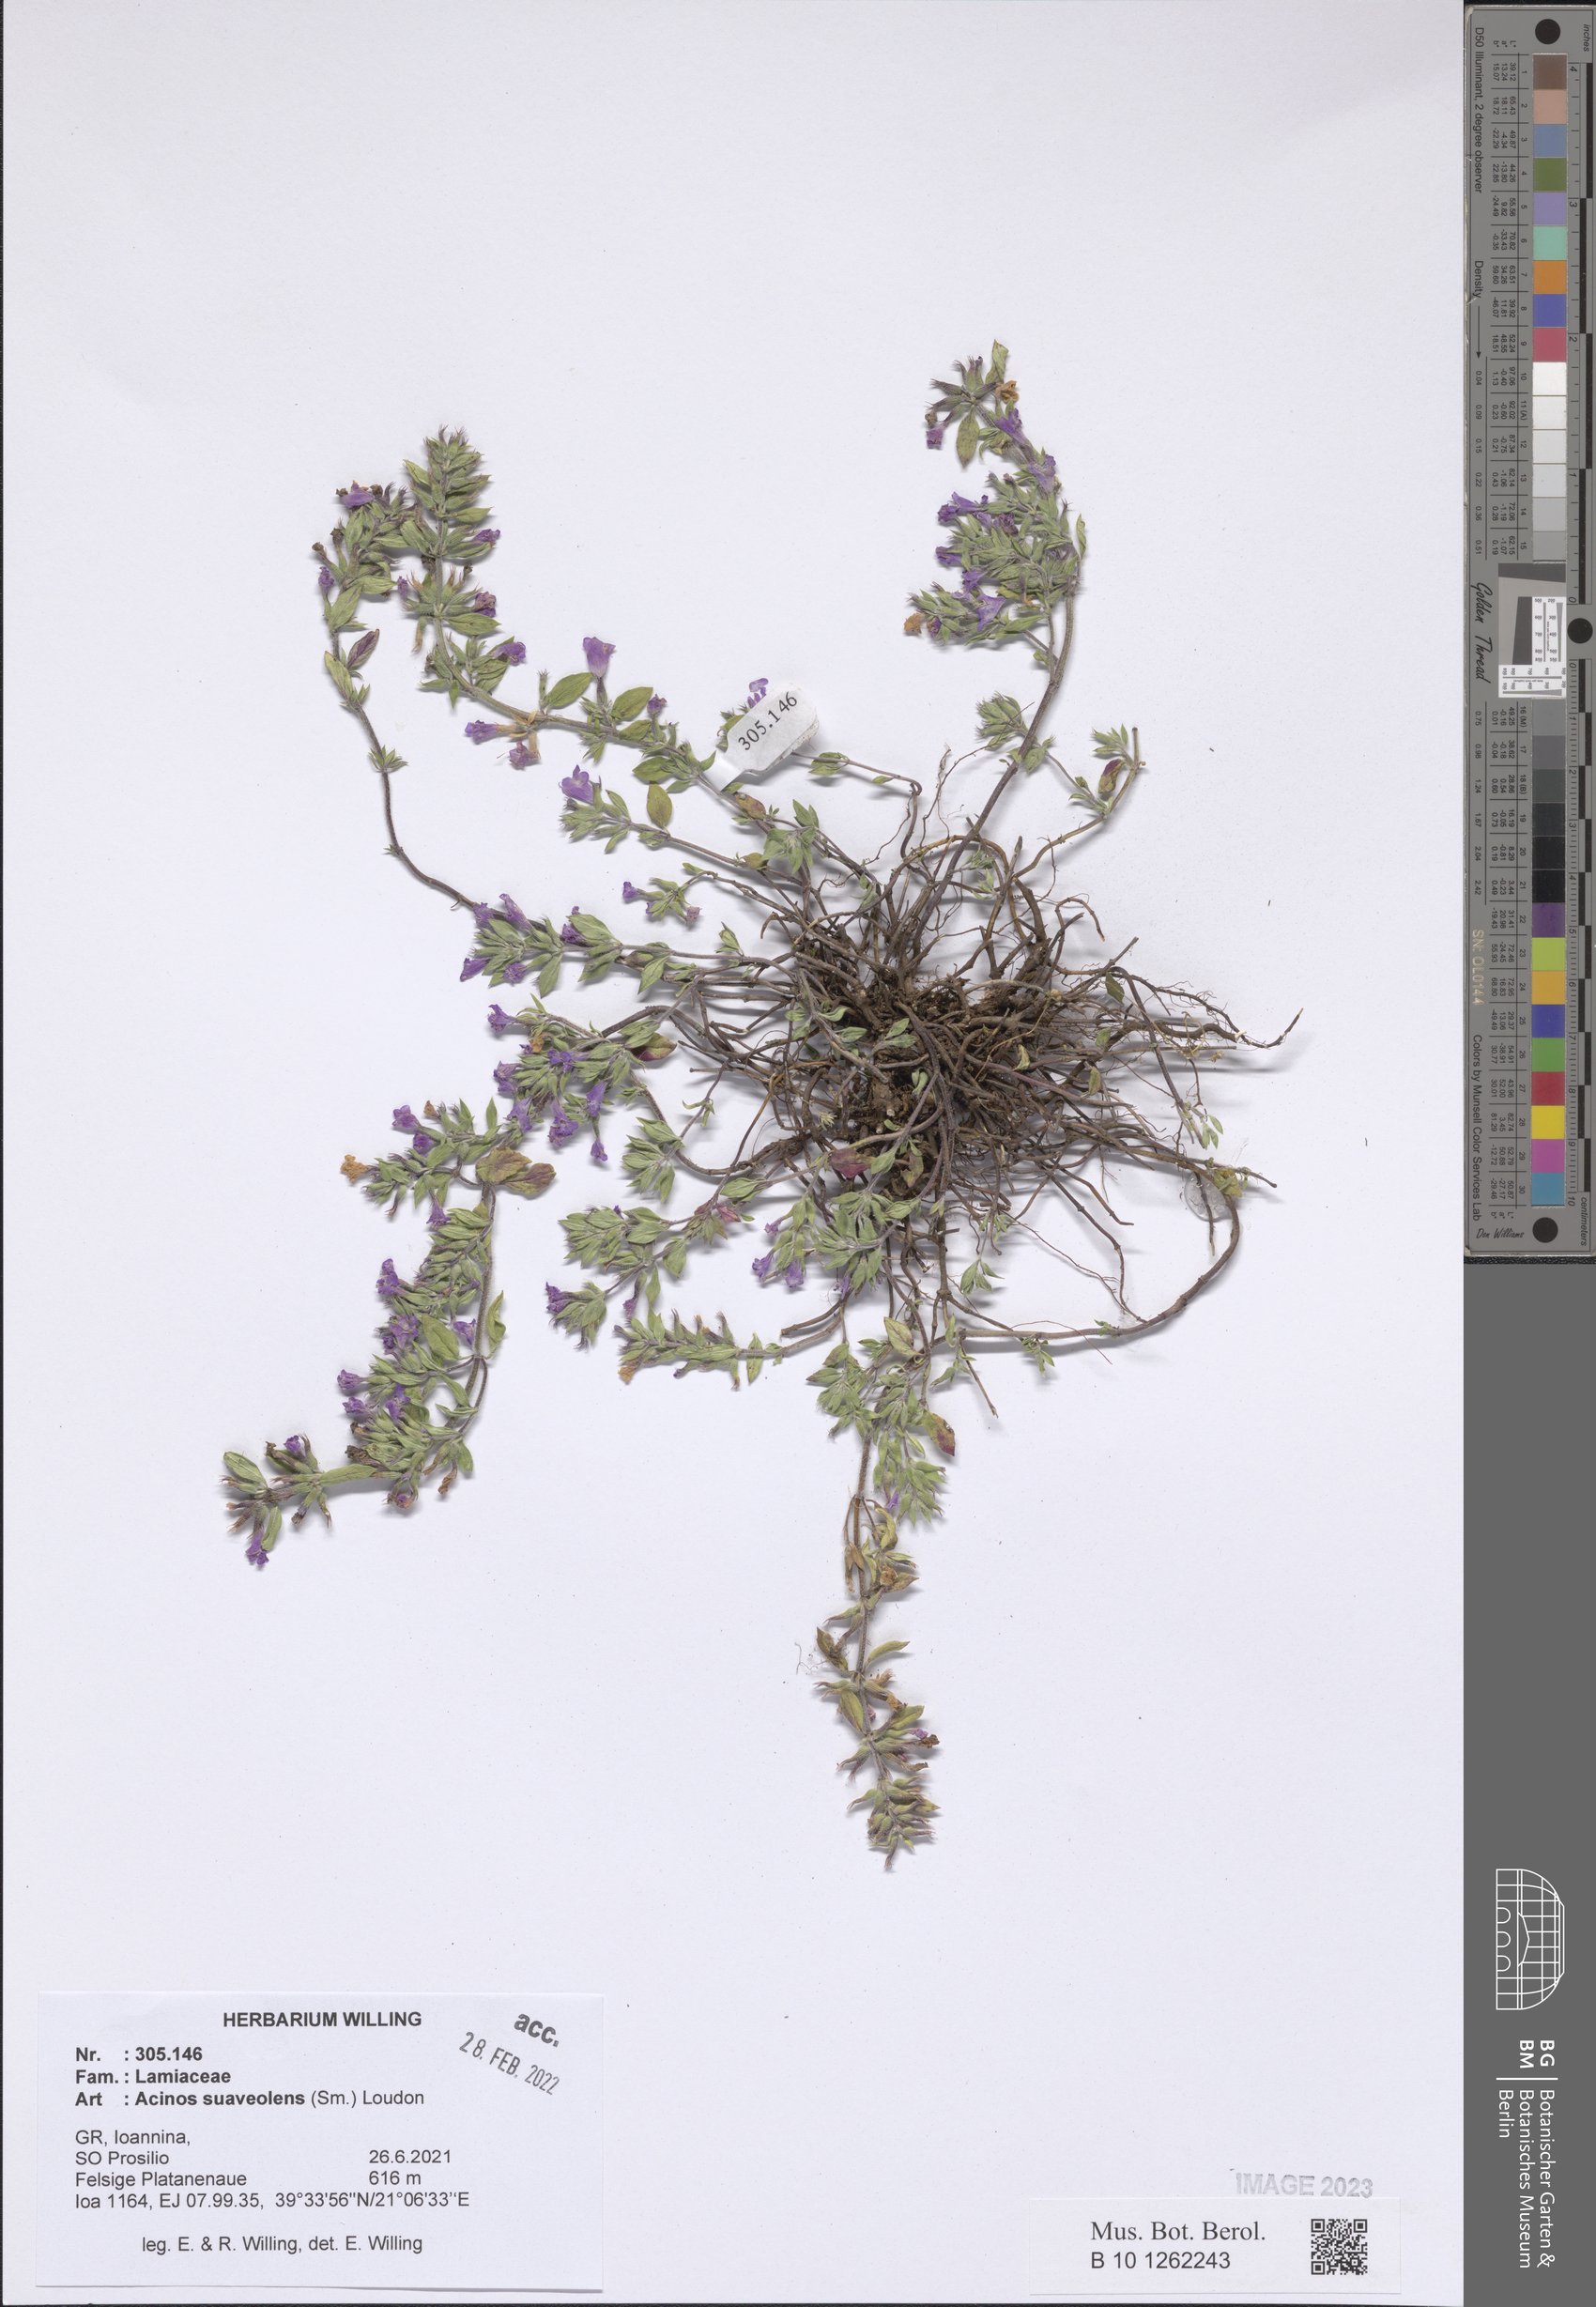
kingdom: Plantae
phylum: Tracheophyta
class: Magnoliopsida
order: Lamiales
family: Lamiaceae
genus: Clinopodium
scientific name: Clinopodium suaveolens
